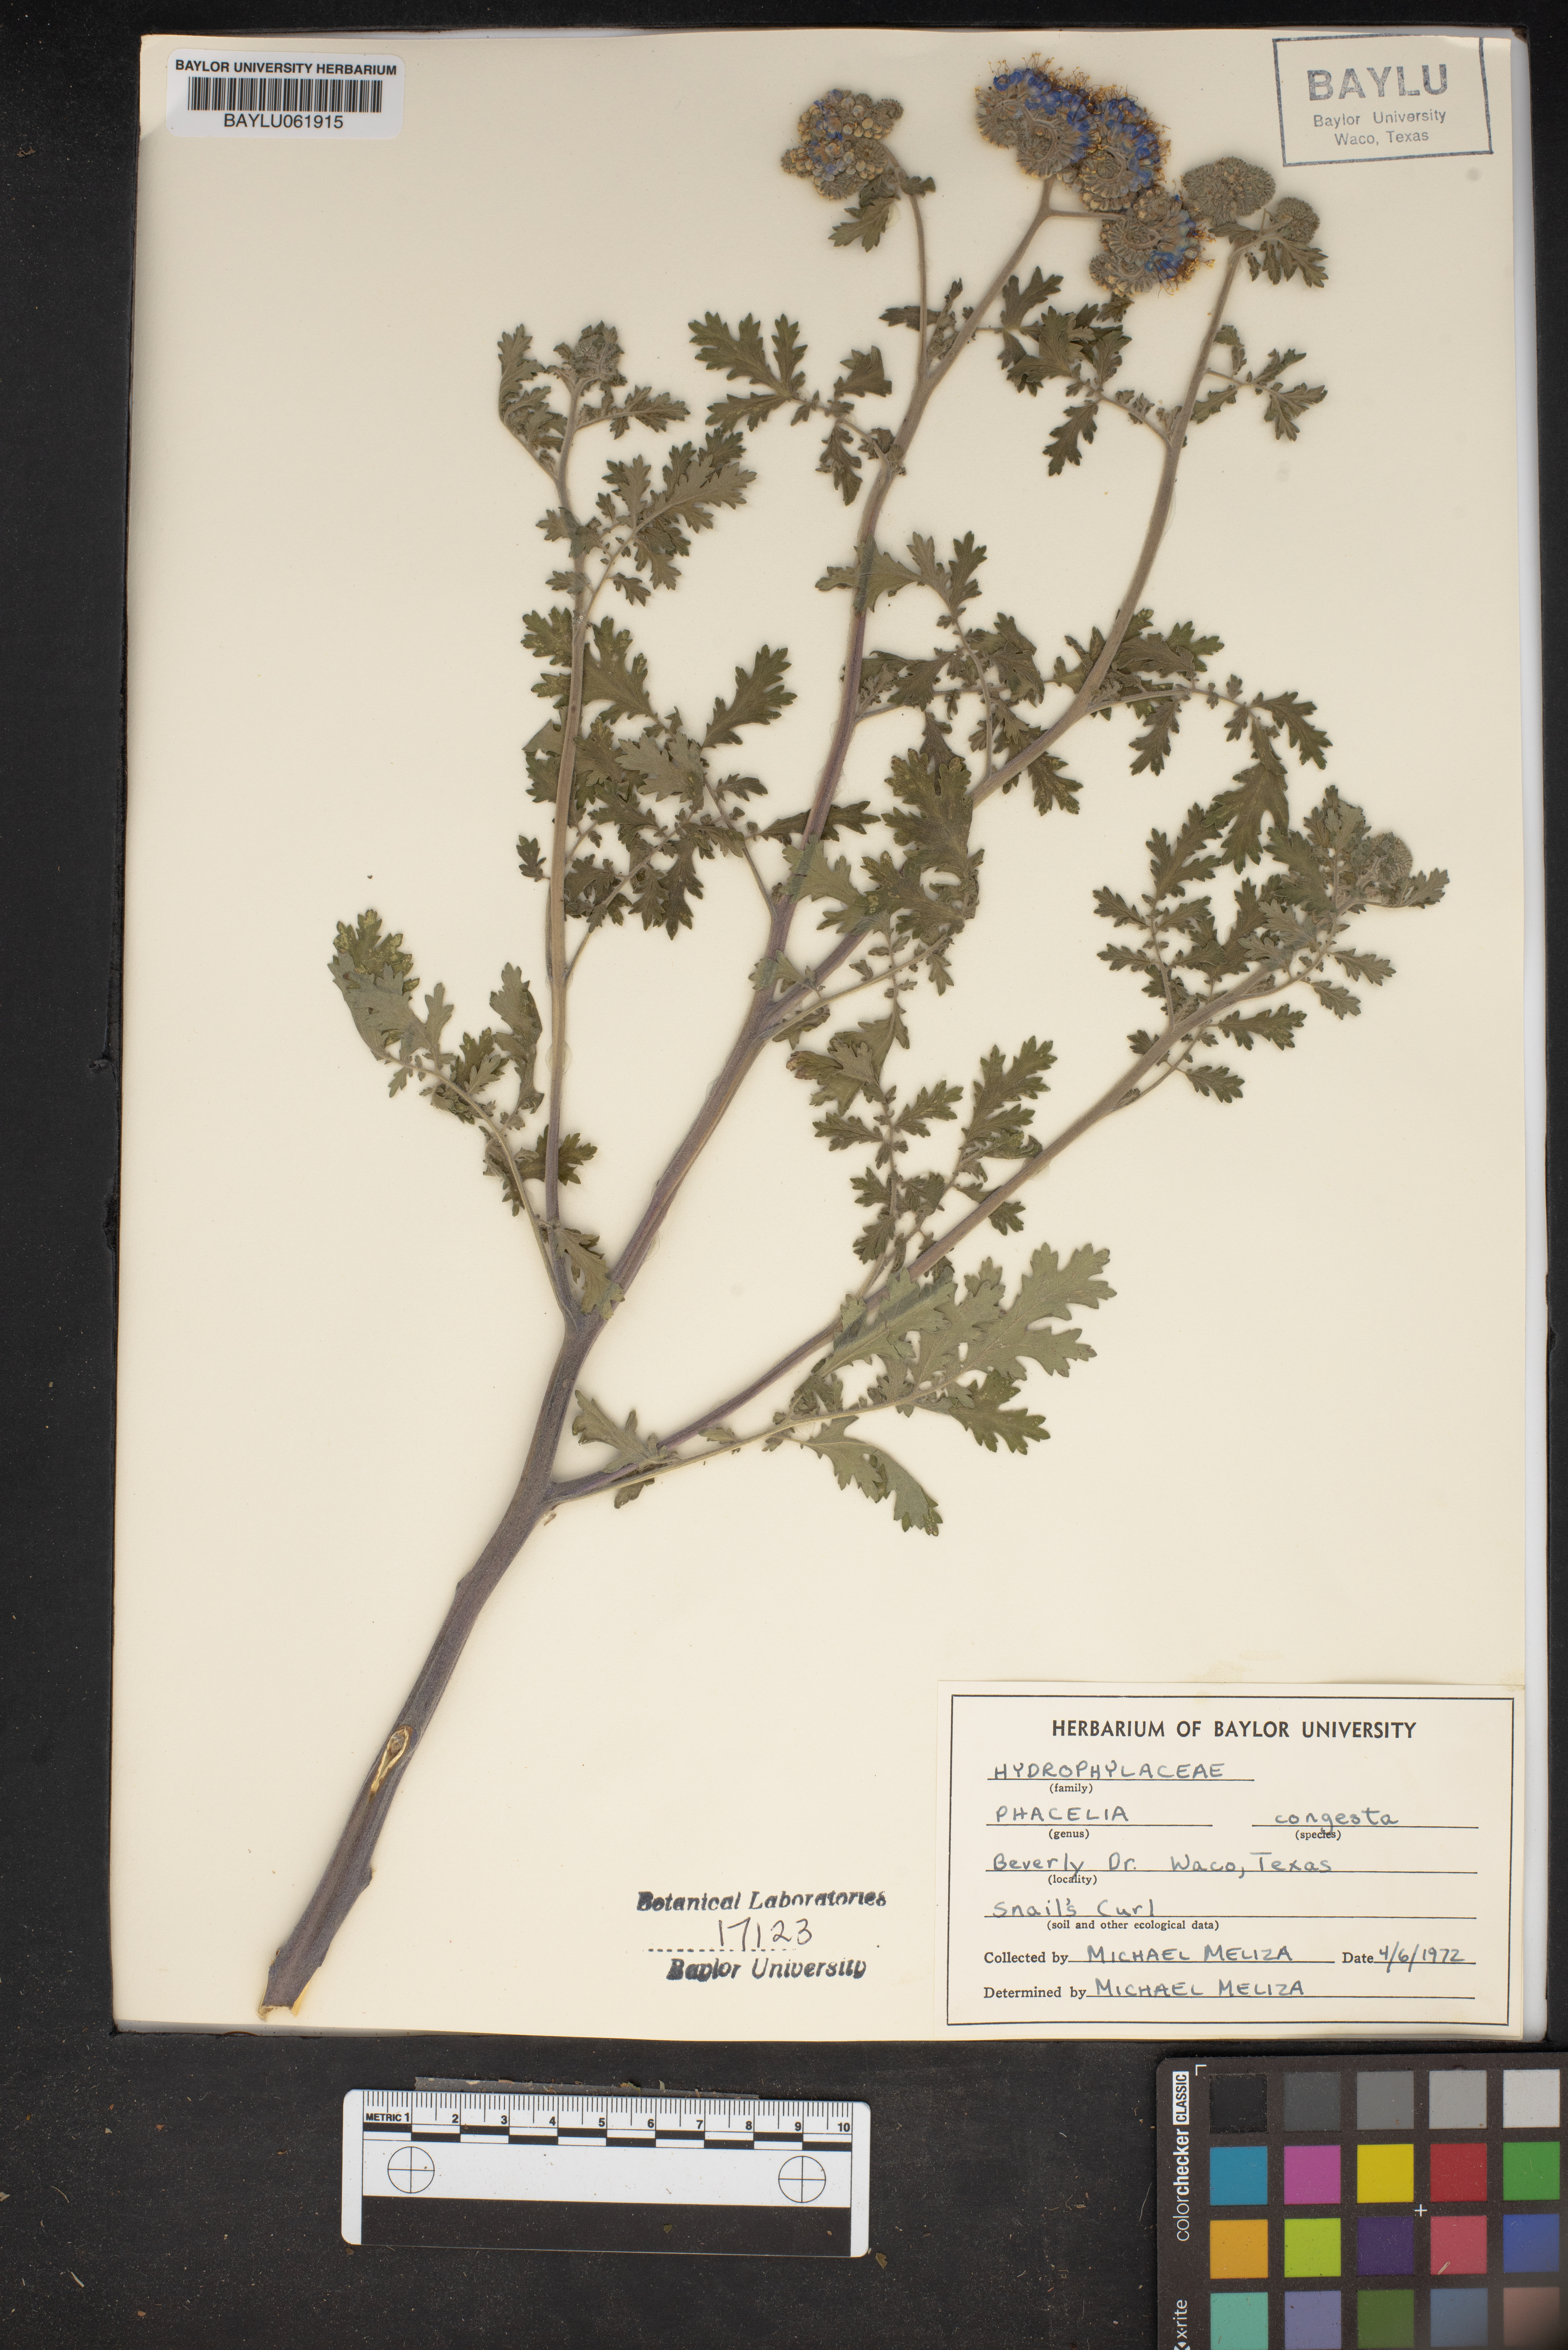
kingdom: Plantae
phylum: Tracheophyta
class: Magnoliopsida
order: Boraginales
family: Hydrophyllaceae
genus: Phacelia
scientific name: Phacelia congesta
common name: Blue curls
